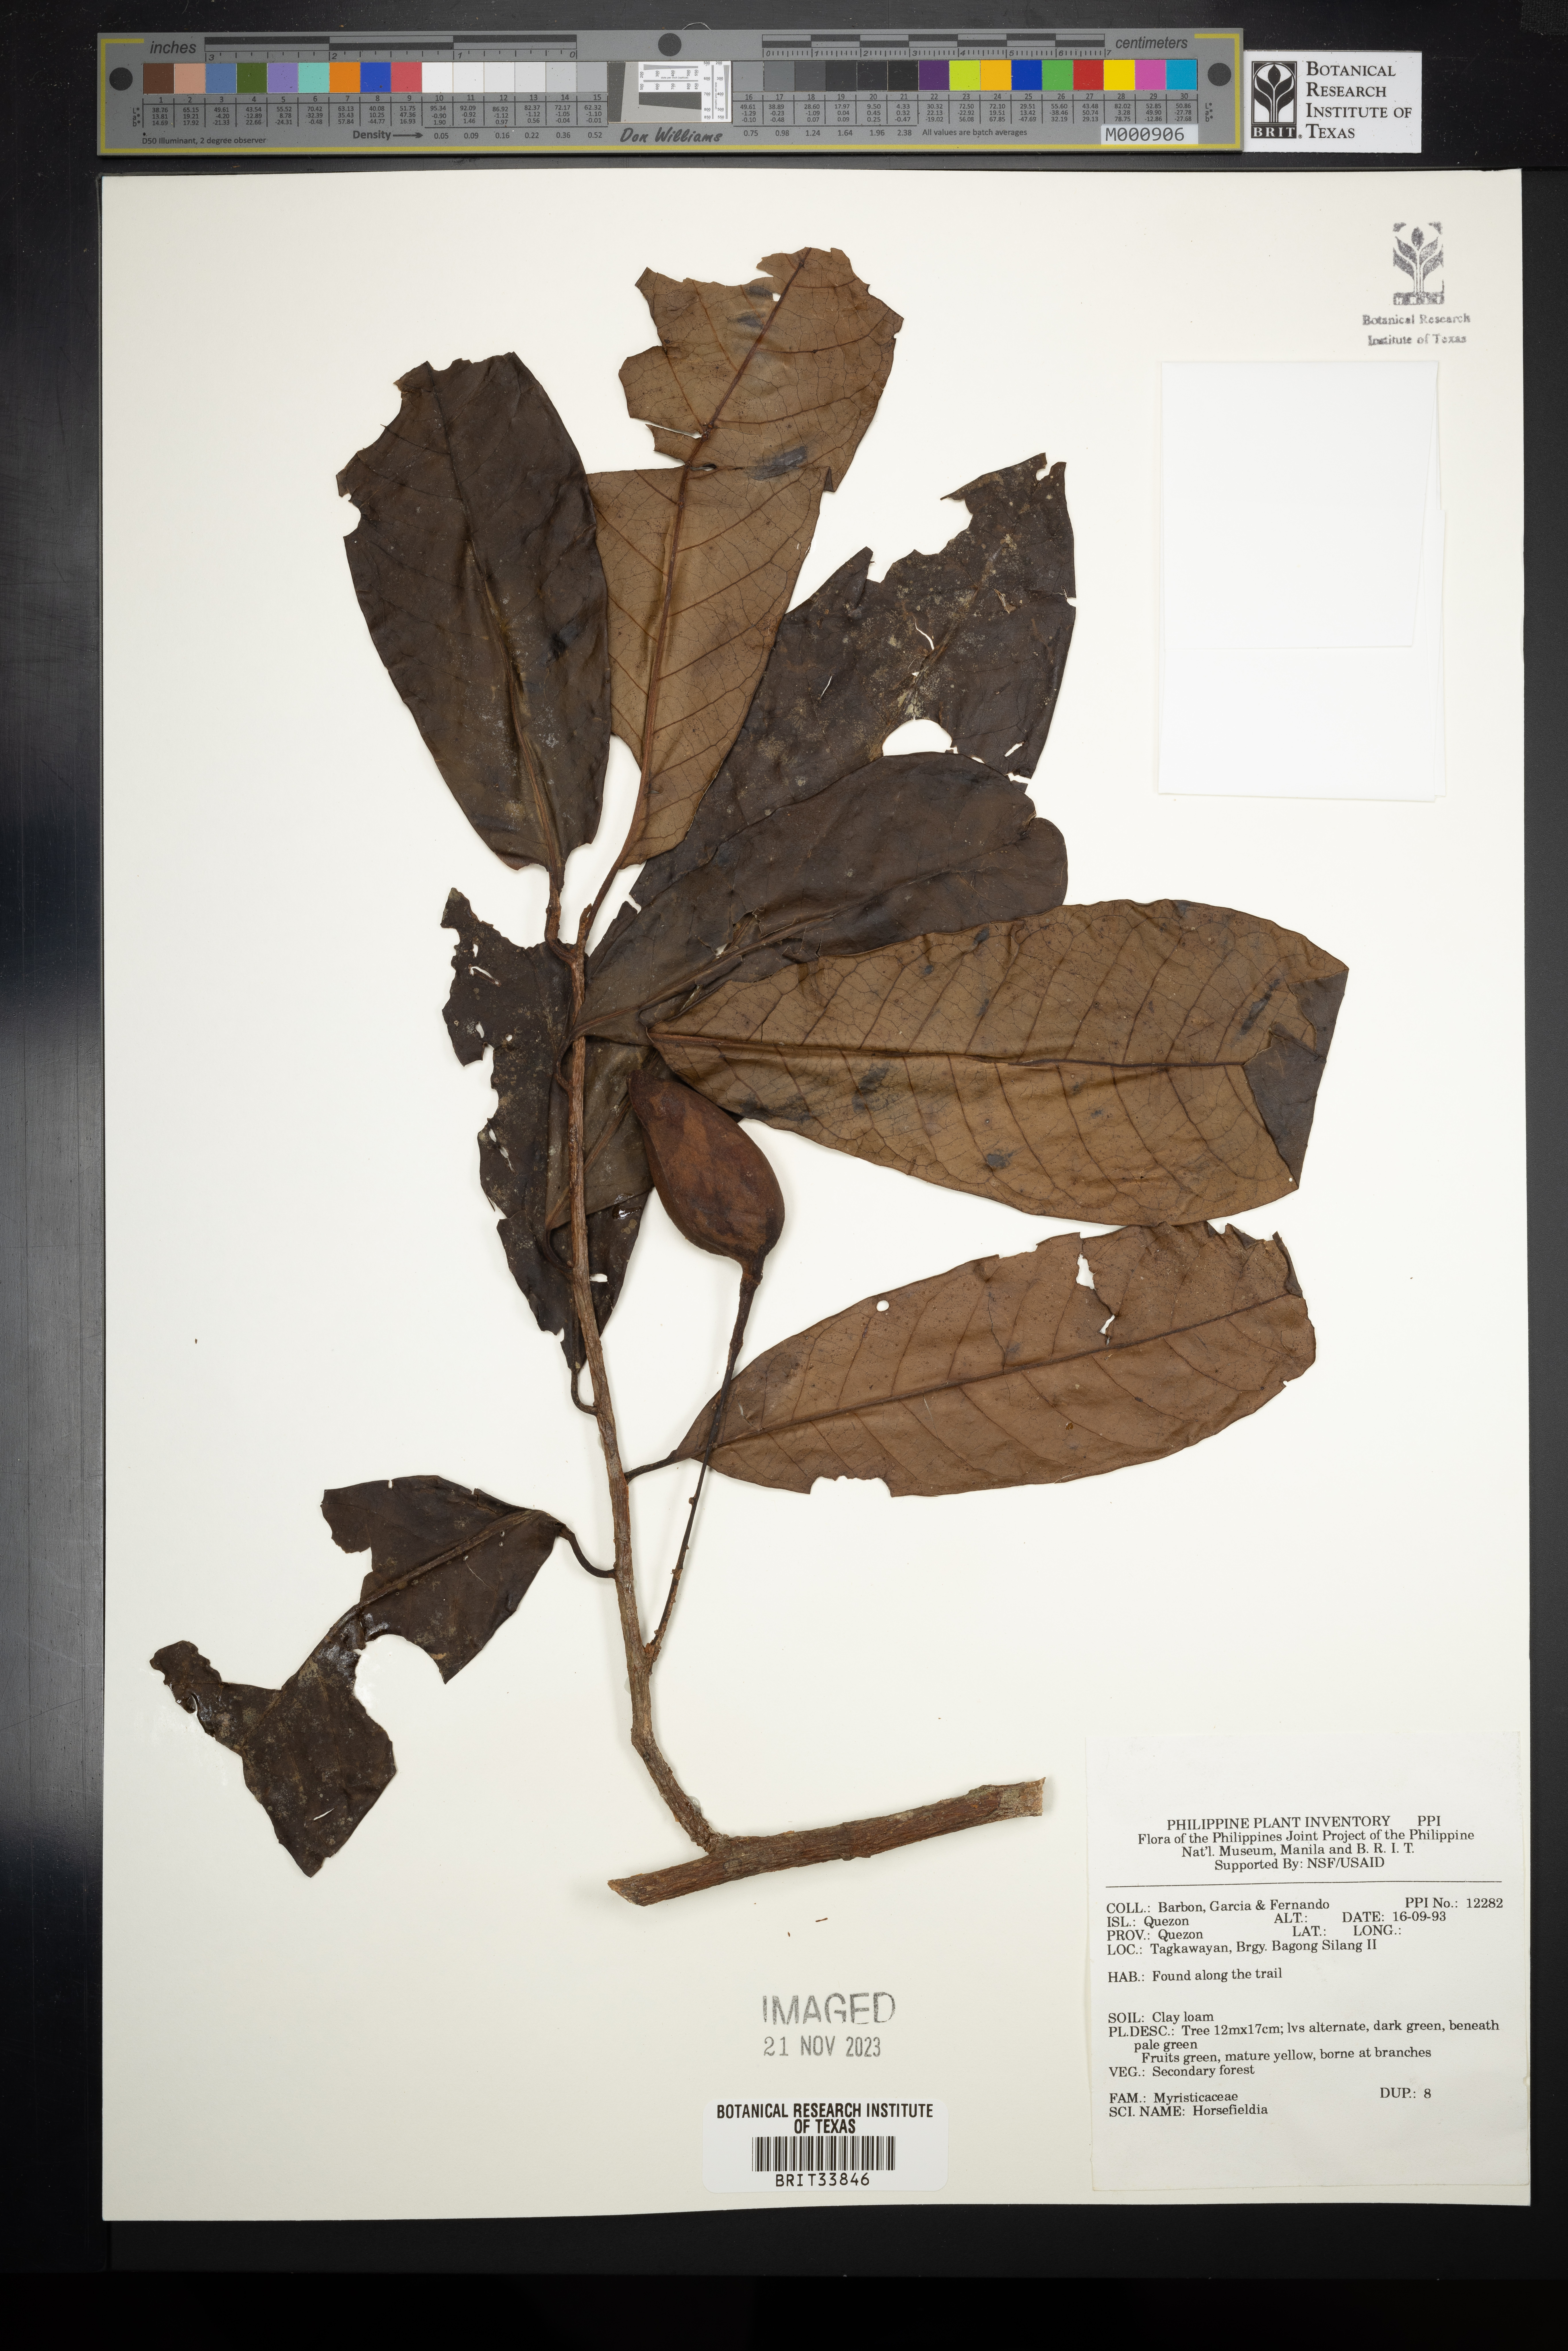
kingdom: Plantae
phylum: Tracheophyta
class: Magnoliopsida
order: Magnoliales
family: Myristicaceae
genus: Horsfieldia
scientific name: Horsfieldia
